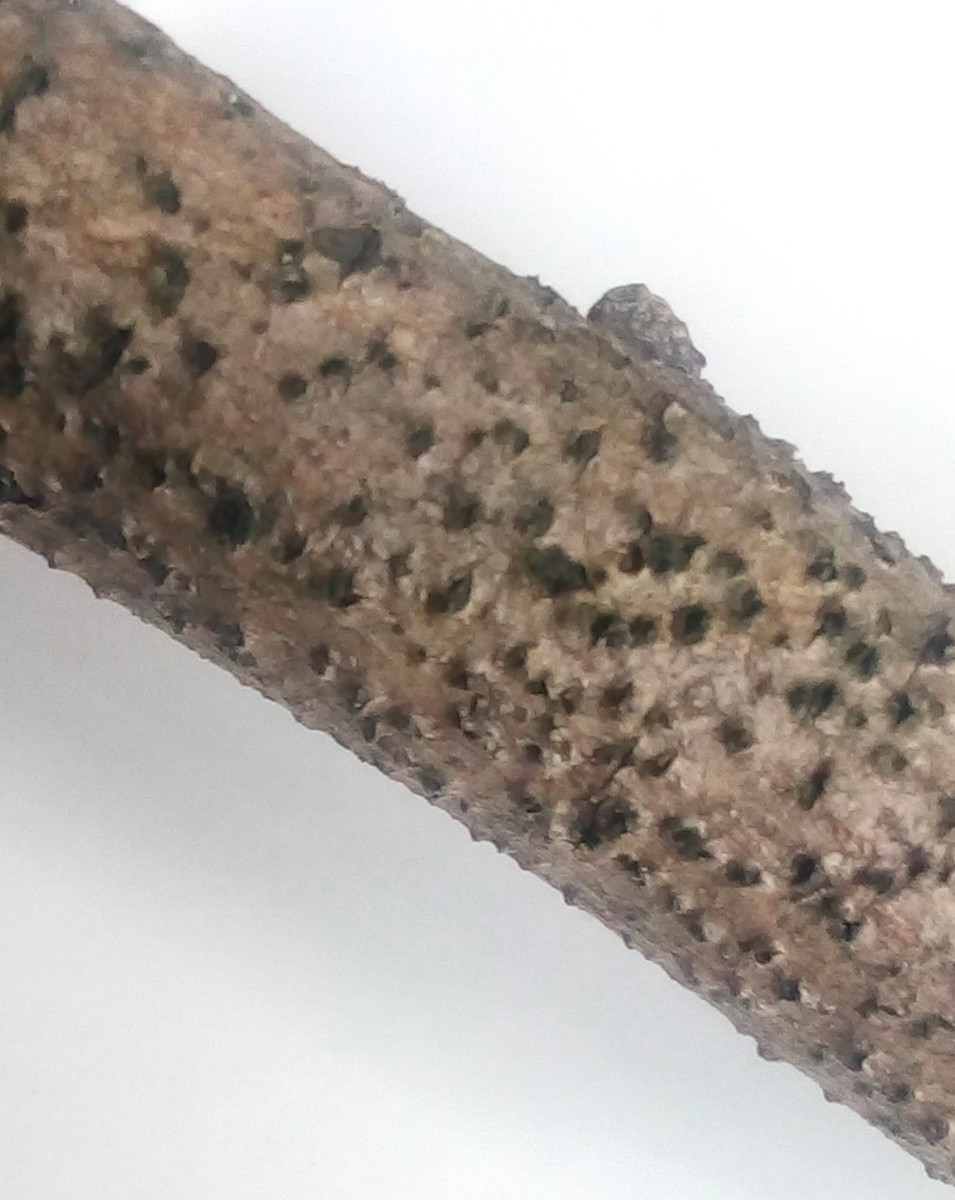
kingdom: Fungi
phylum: Ascomycota
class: Dothideomycetes
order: Pleosporales
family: Lophiostomataceae
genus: Lophiostoma
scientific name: Lophiostoma quadrinucleatum
